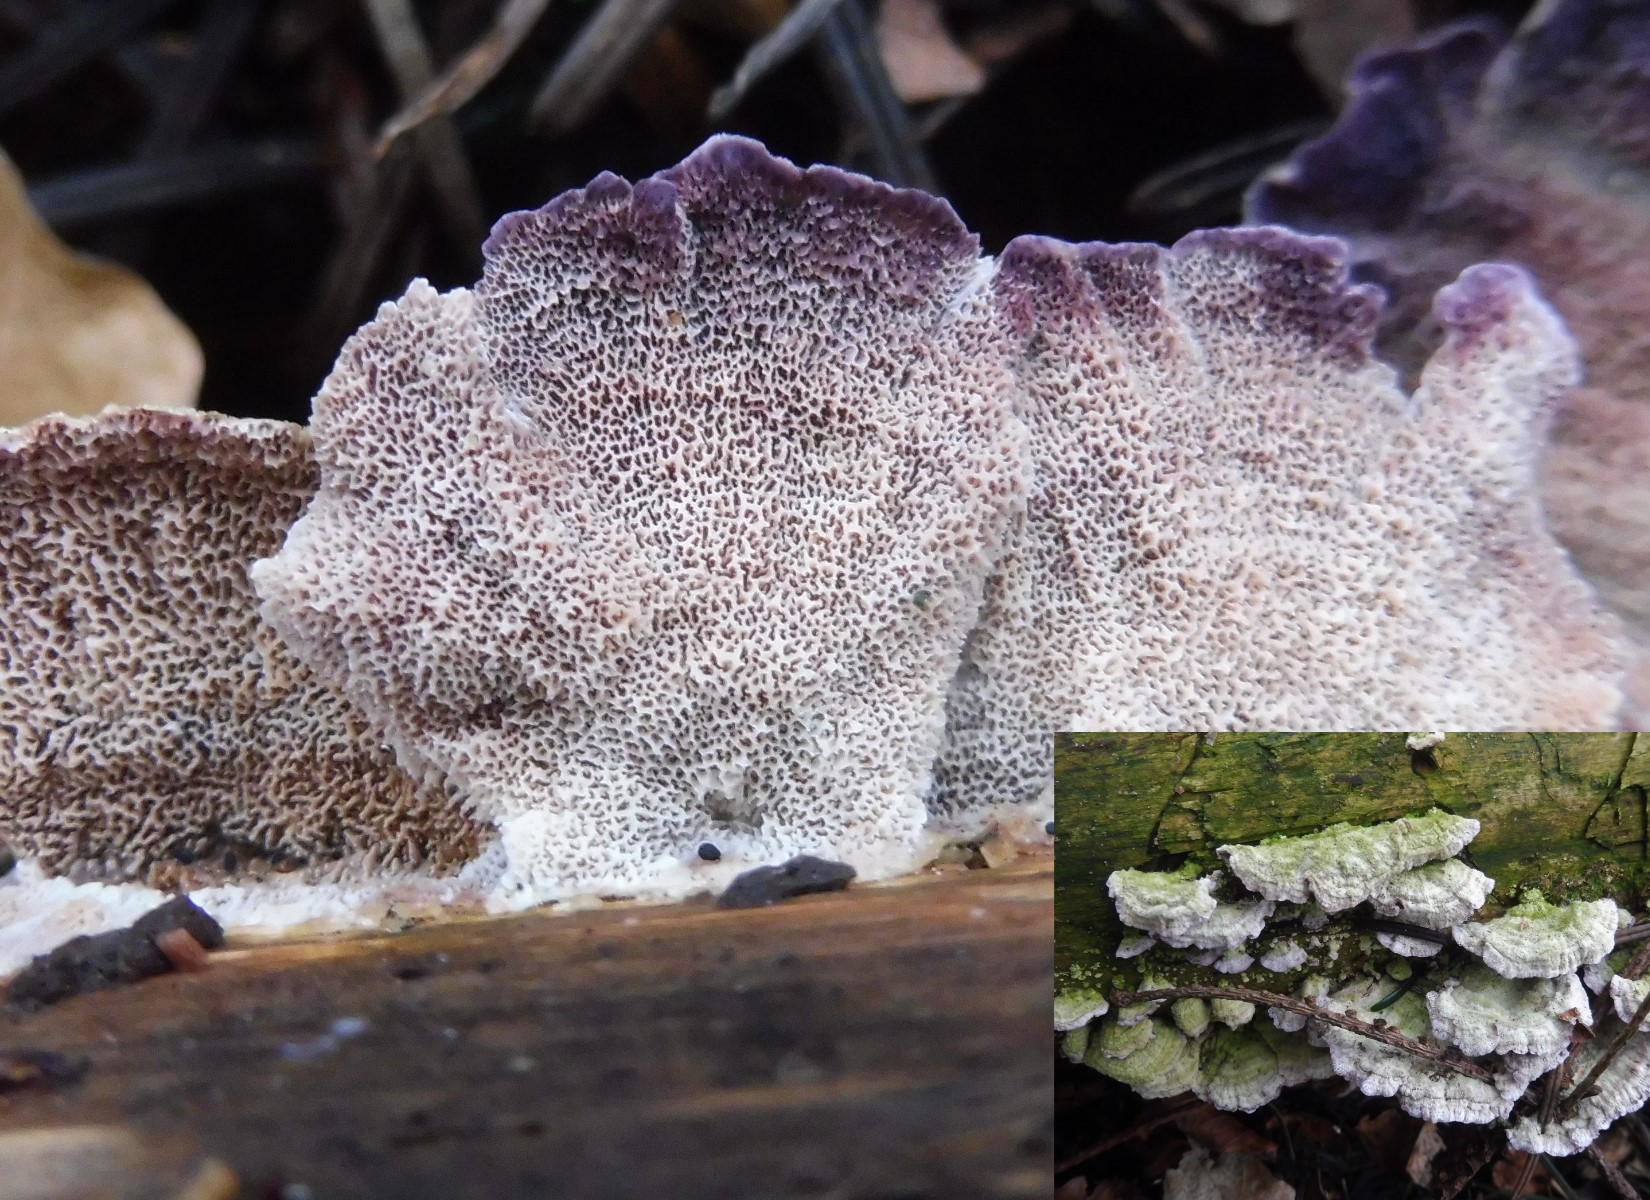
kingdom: Fungi
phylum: Basidiomycota
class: Agaricomycetes
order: Hymenochaetales
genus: Trichaptum
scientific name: Trichaptum abietinum
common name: almindelig violporesvamp
